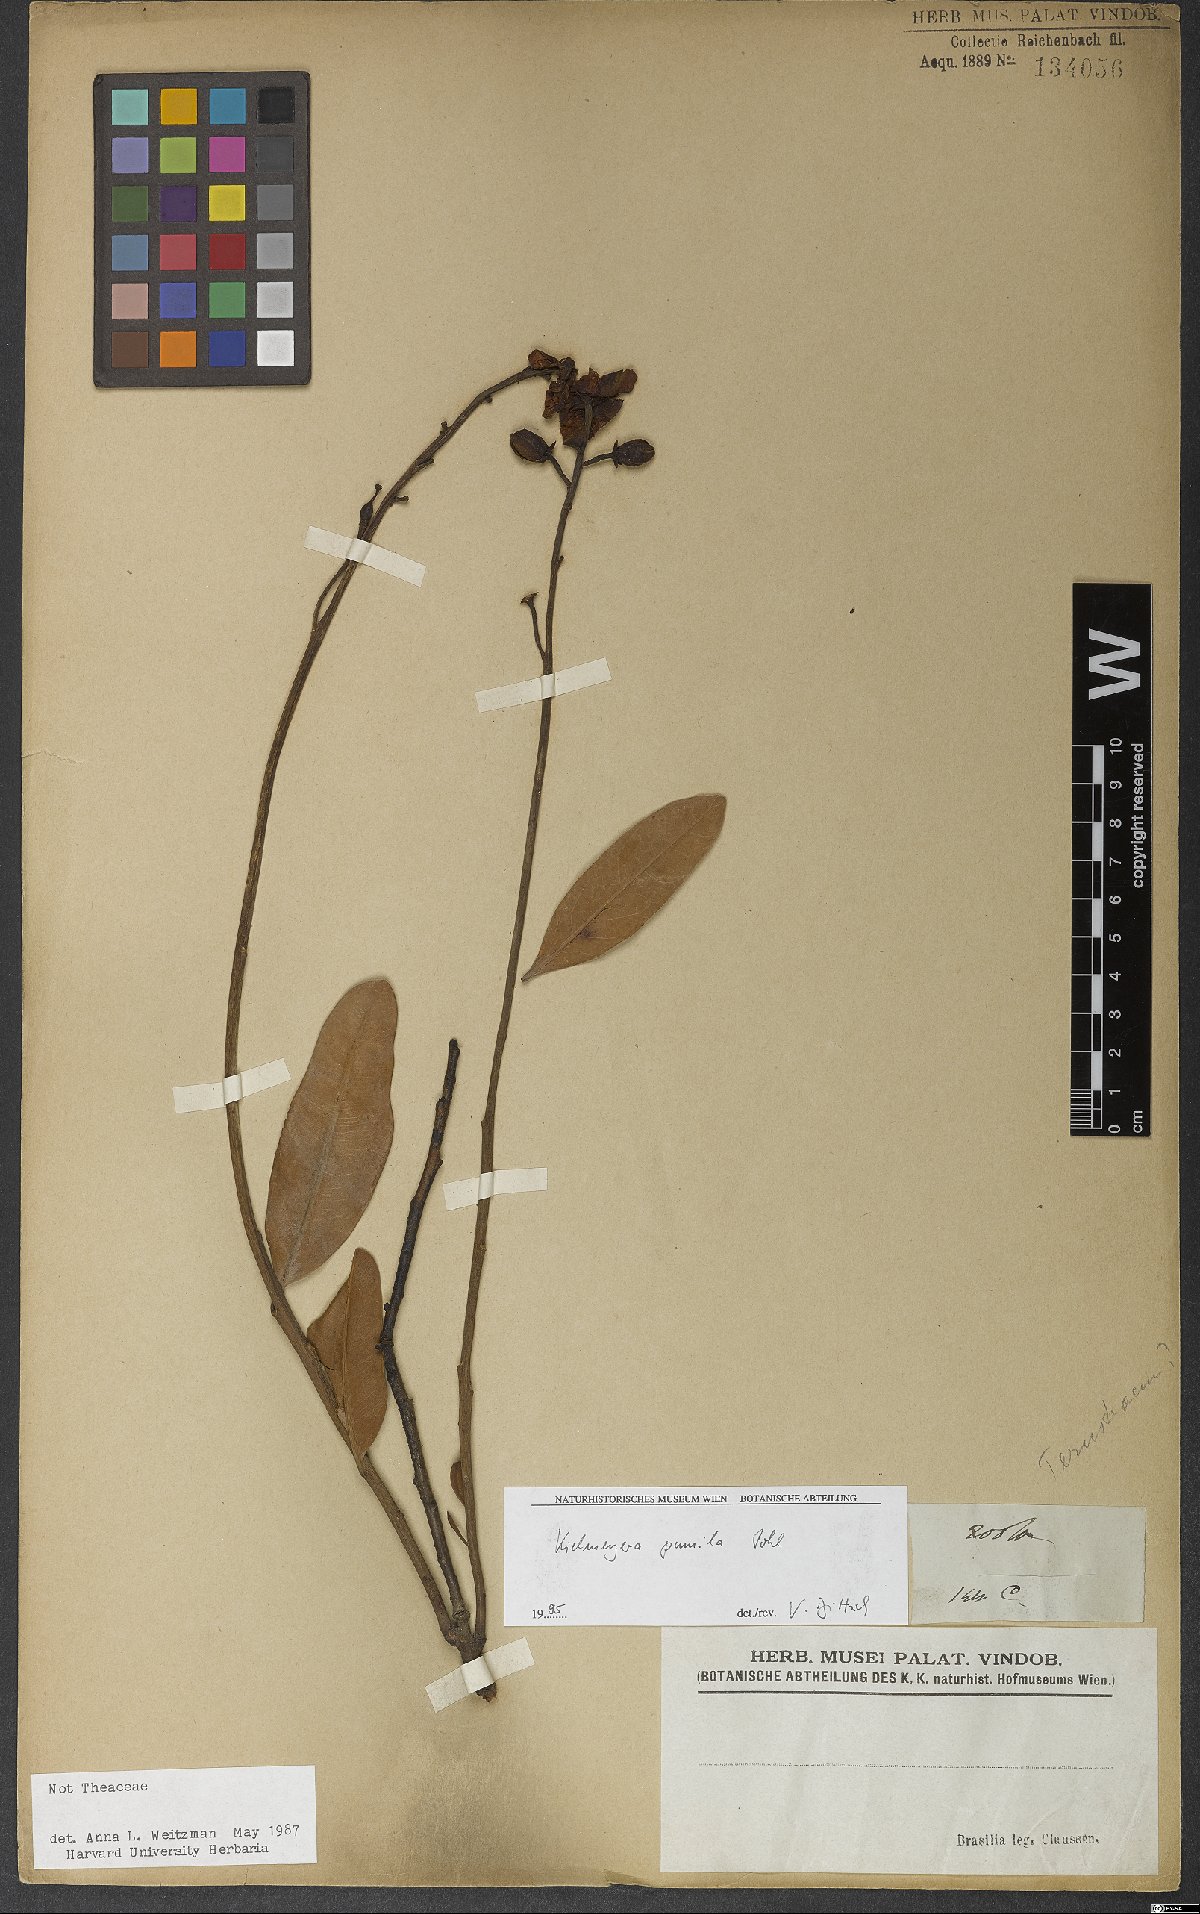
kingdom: Plantae
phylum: Tracheophyta
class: Magnoliopsida
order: Malpighiales
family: Calophyllaceae
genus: Kielmeyera
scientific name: Kielmeyera pumila
